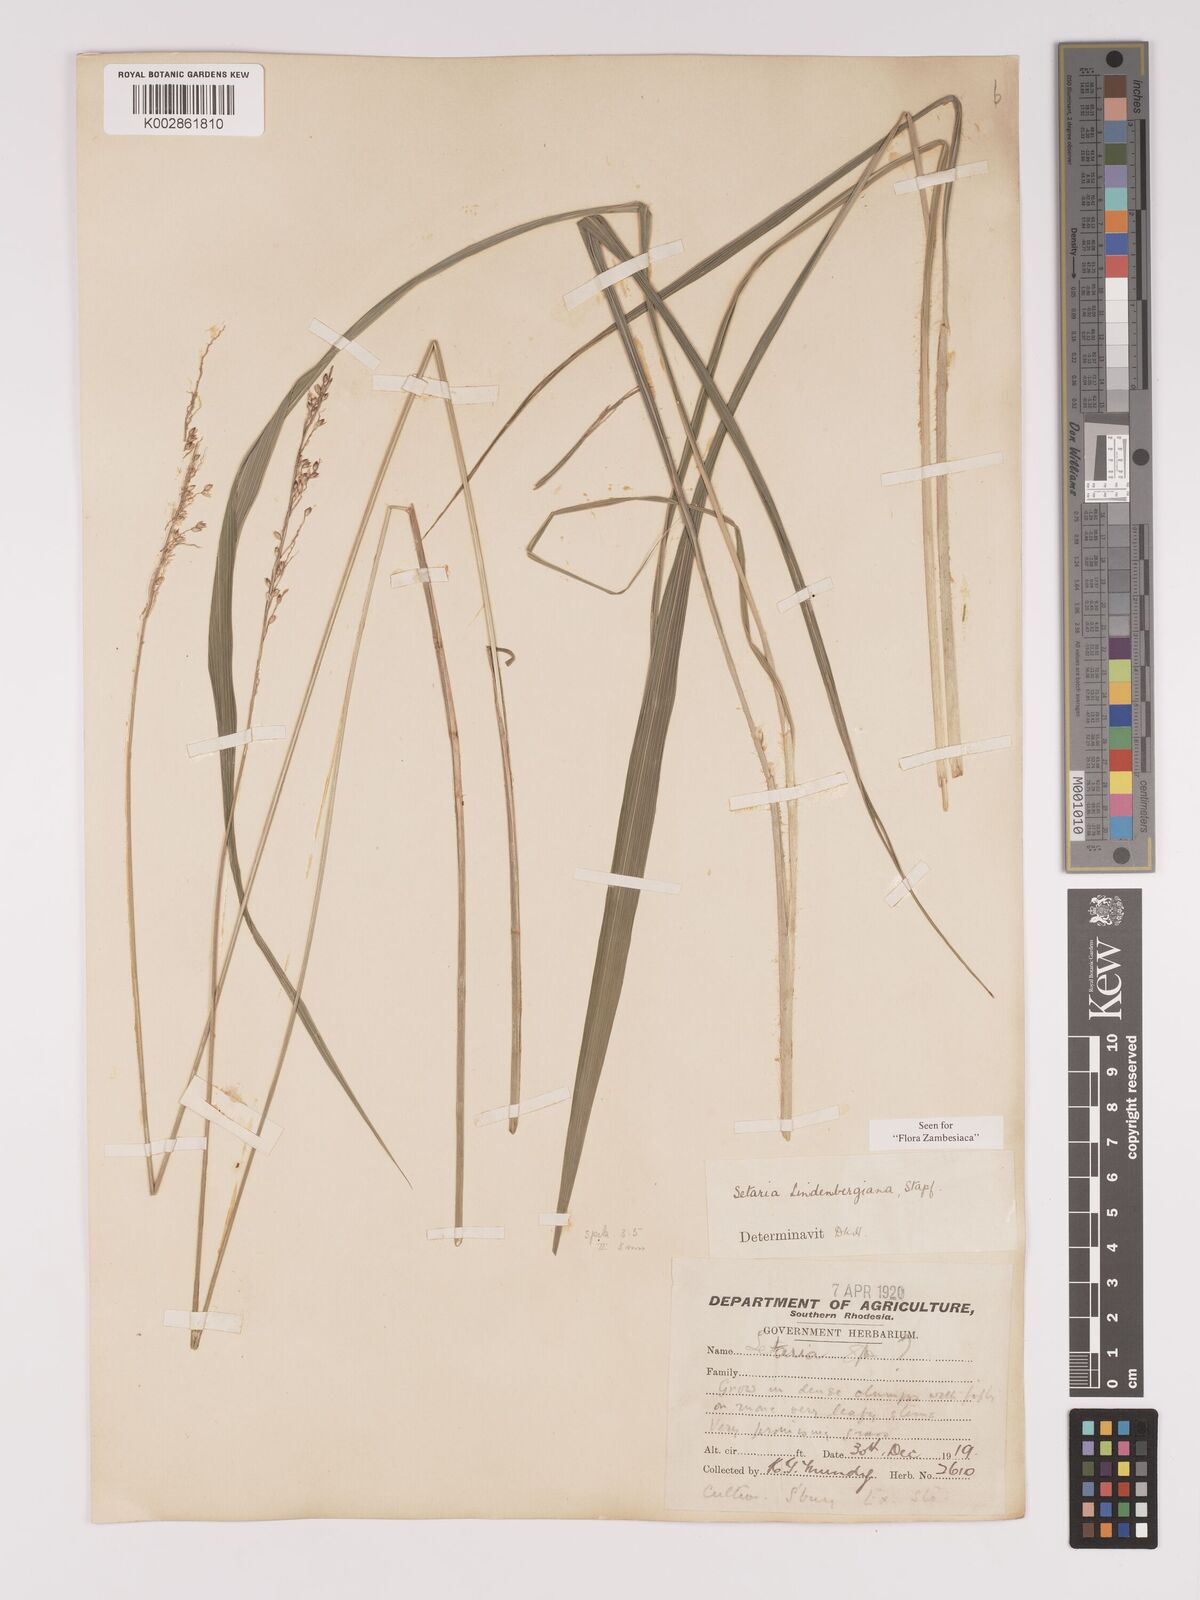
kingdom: Plantae
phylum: Tracheophyta
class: Liliopsida
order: Poales
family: Poaceae
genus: Setaria
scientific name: Setaria lindenbergiana
